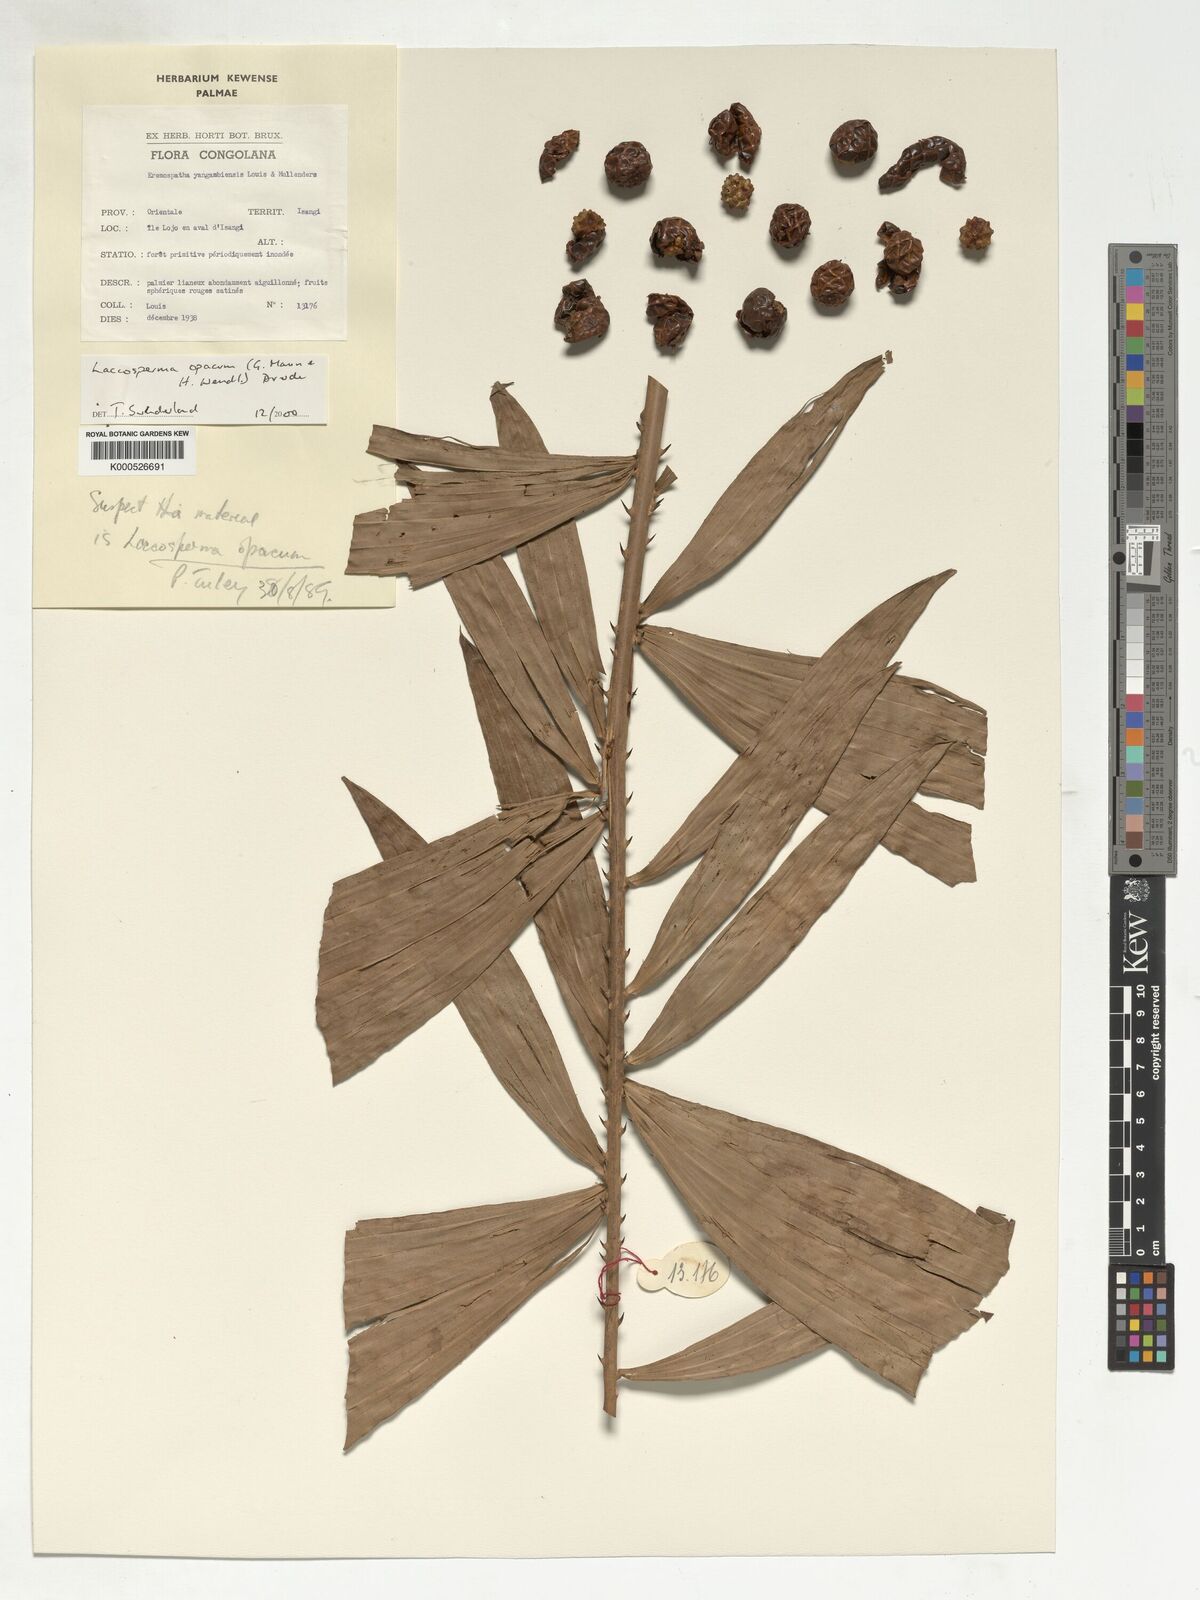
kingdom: Plantae
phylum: Tracheophyta
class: Liliopsida
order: Arecales
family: Arecaceae
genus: Laccosperma
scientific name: Laccosperma opacum
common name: Rattan
